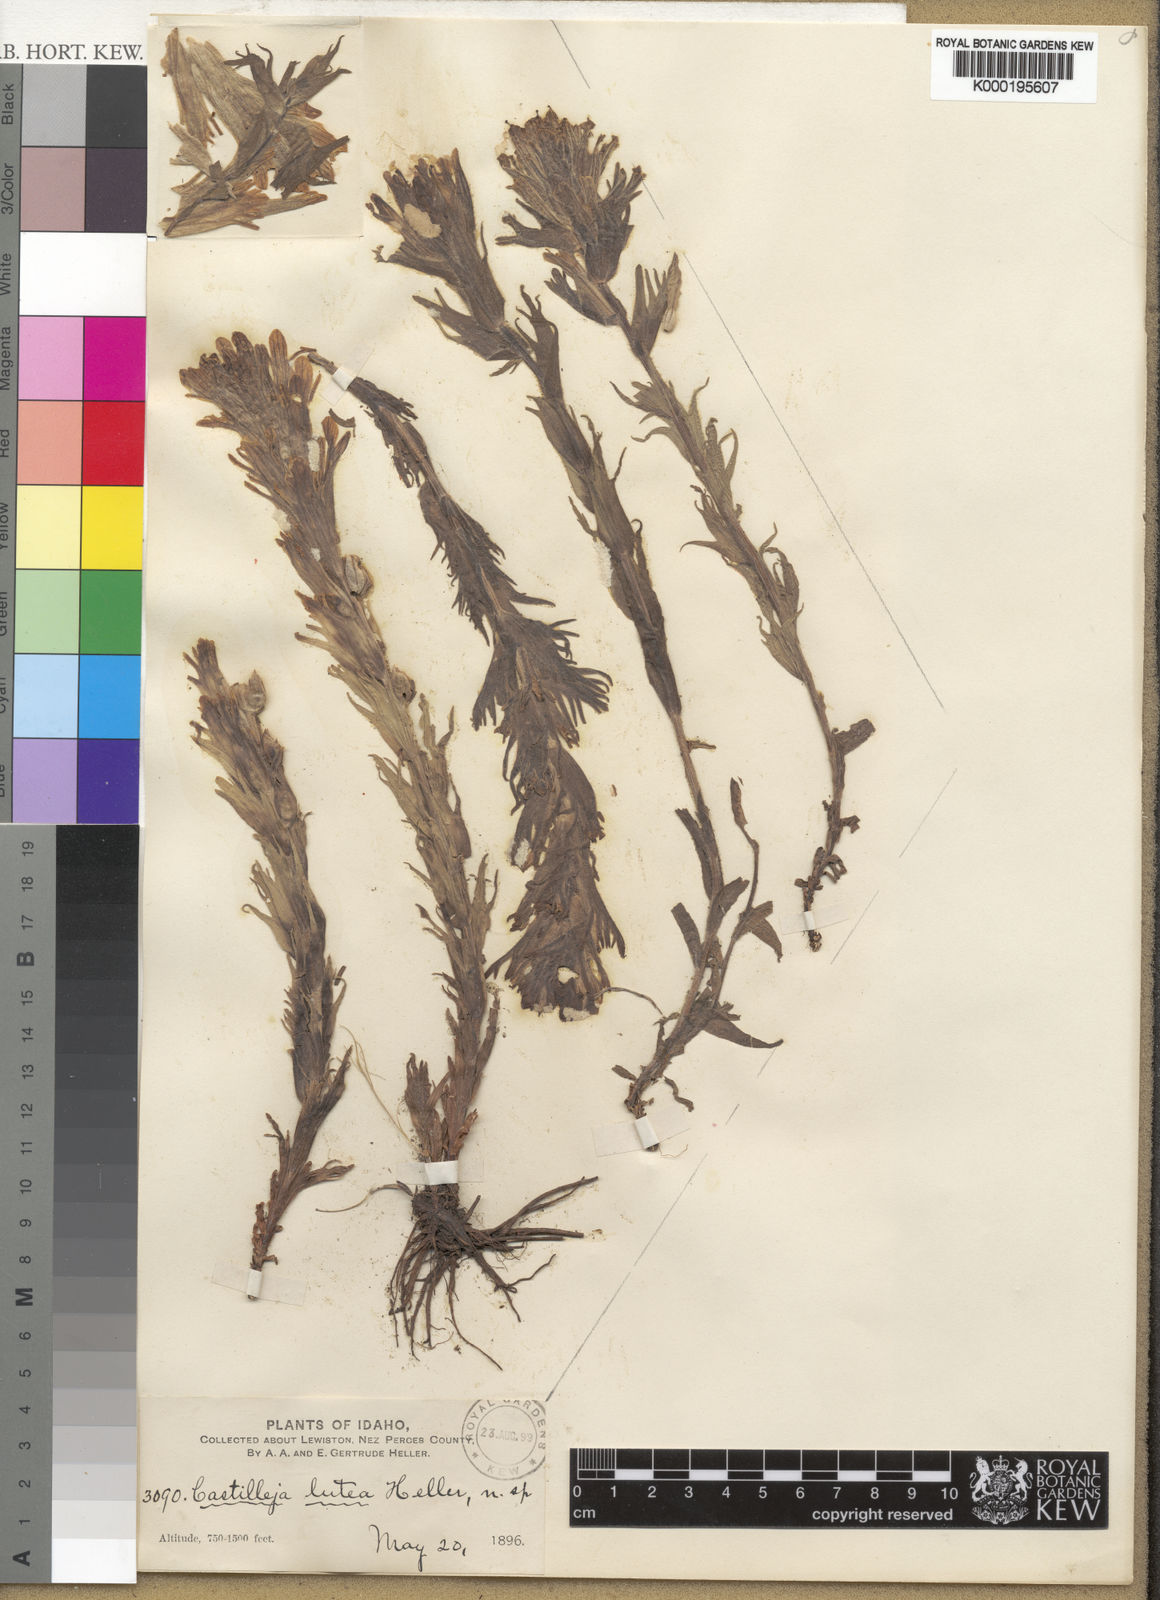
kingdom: Plantae
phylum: Tracheophyta
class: Magnoliopsida
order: Lamiales
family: Orobanchaceae
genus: Castilleja
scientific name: Castilleja cusickii
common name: Cusick's paintbrush
